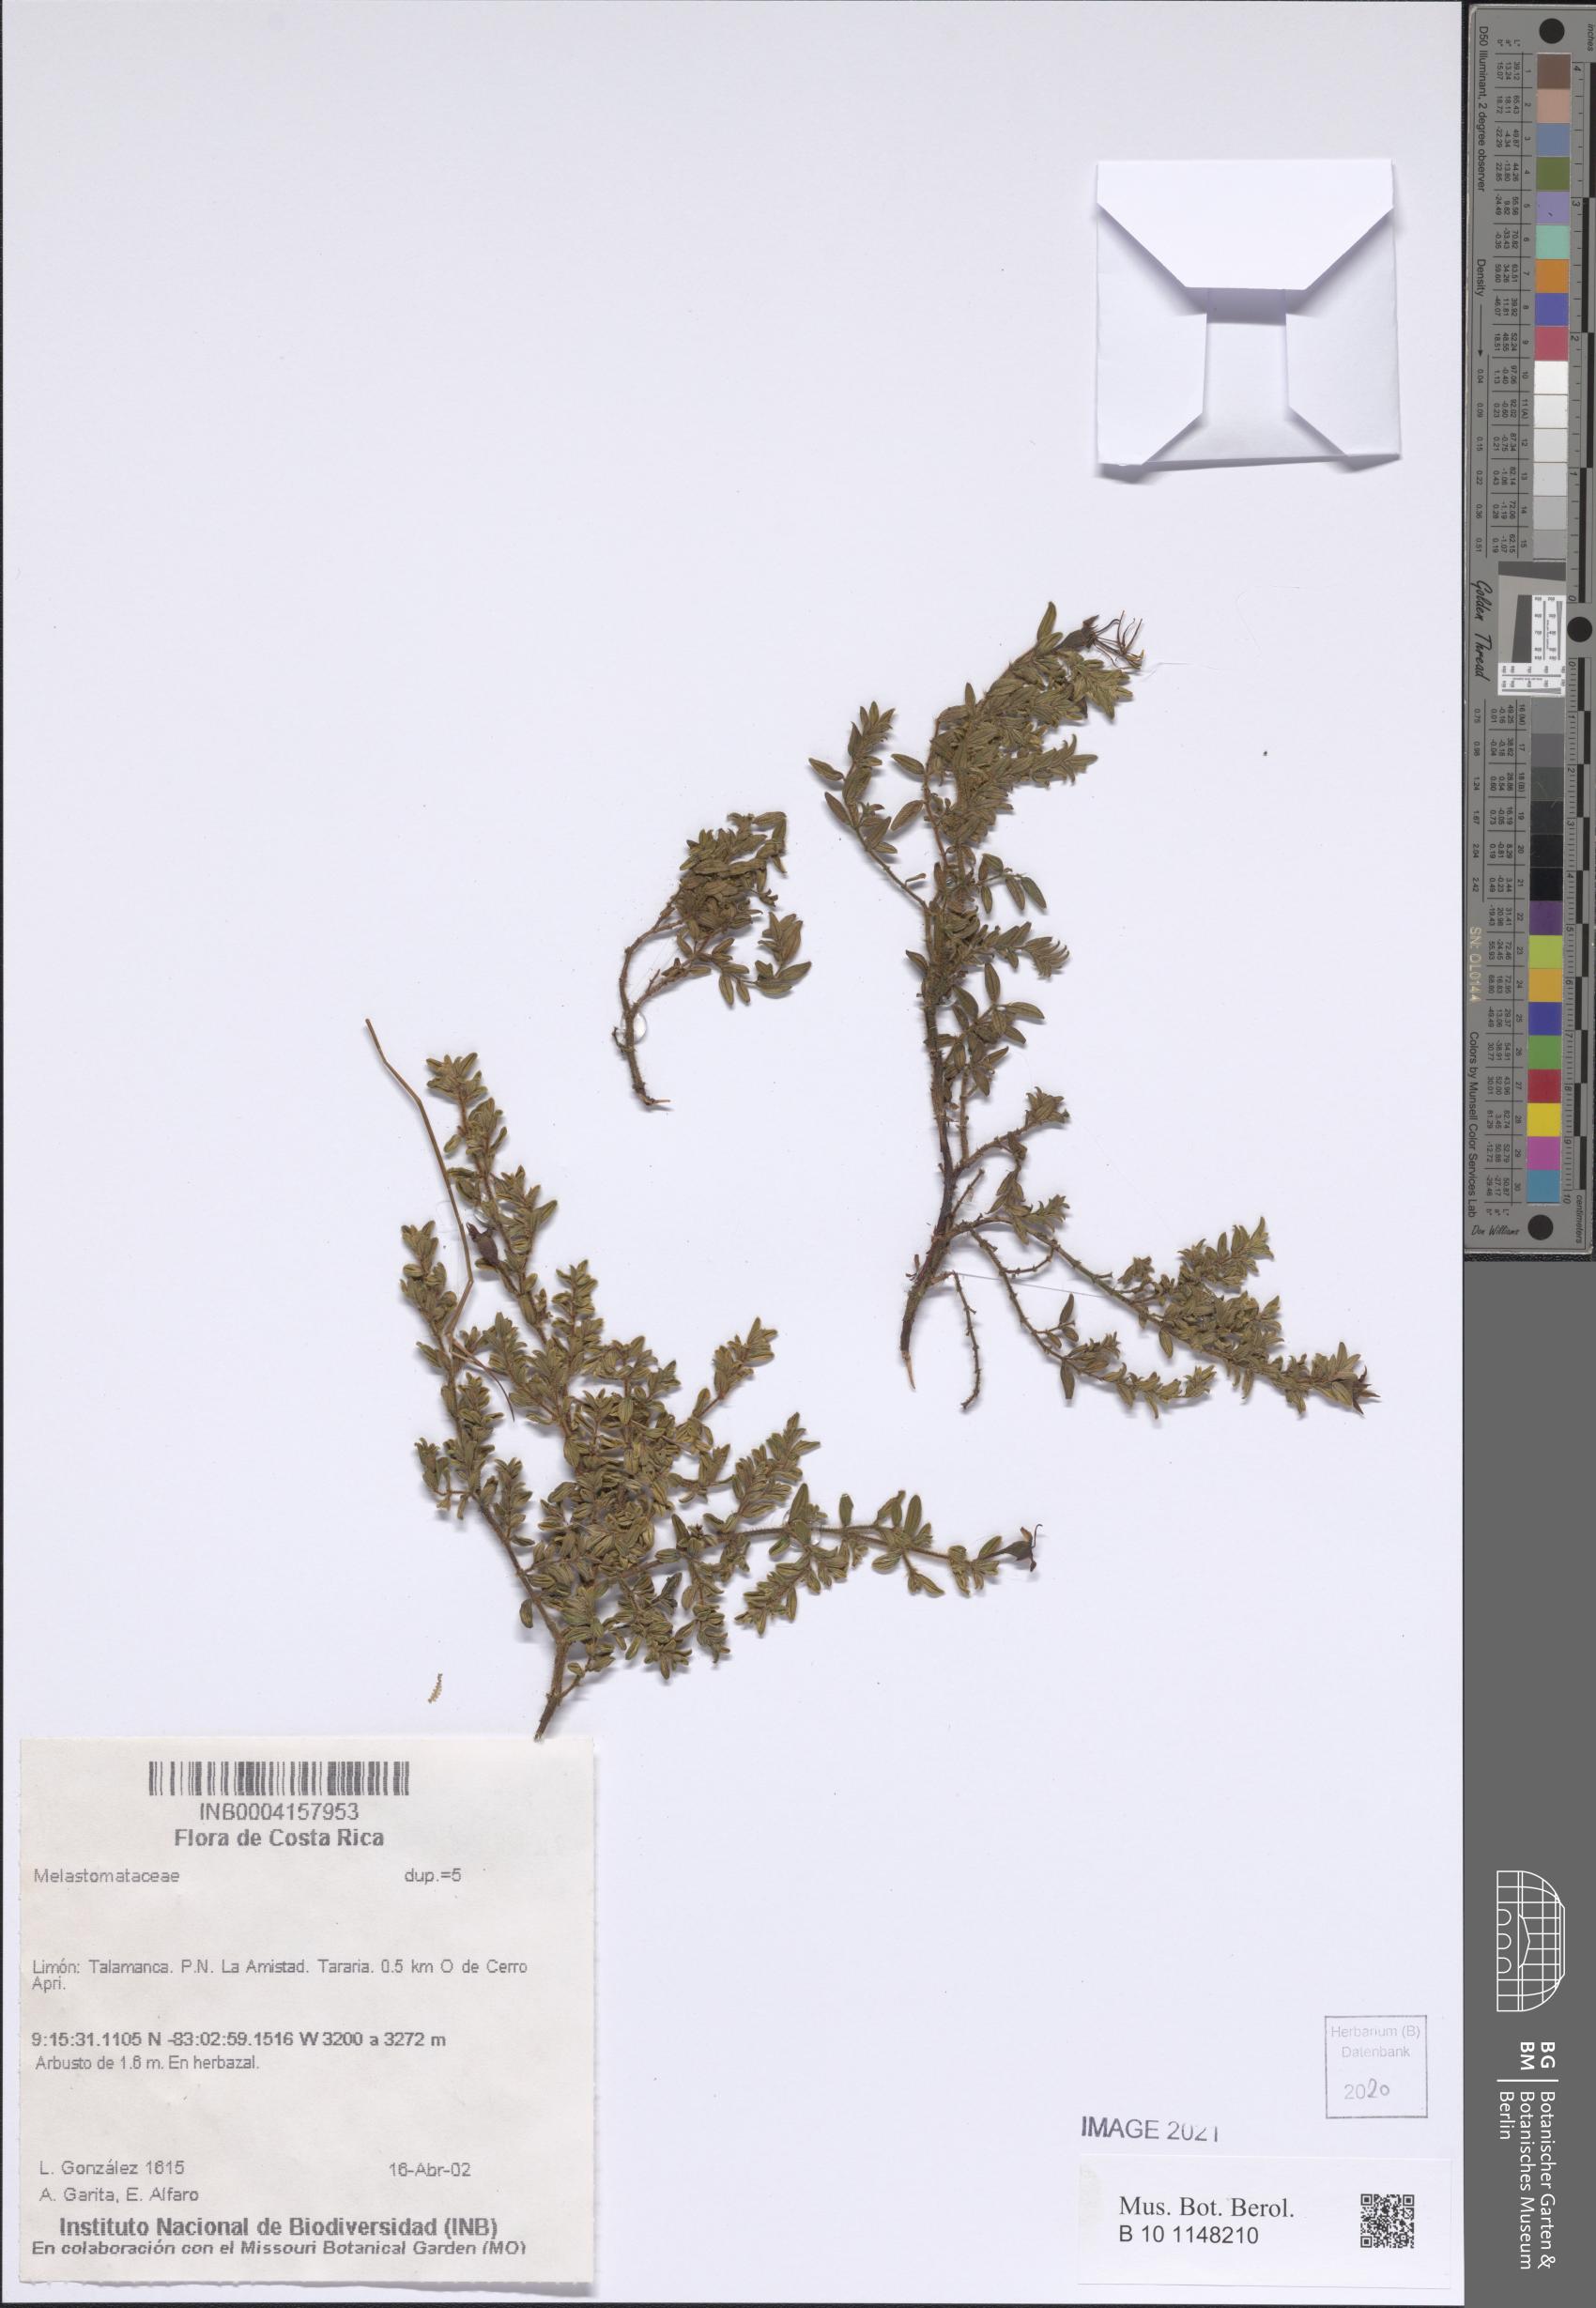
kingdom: Plantae
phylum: Tracheophyta
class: Magnoliopsida
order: Myrtales
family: Melastomataceae
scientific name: Melastomataceae
